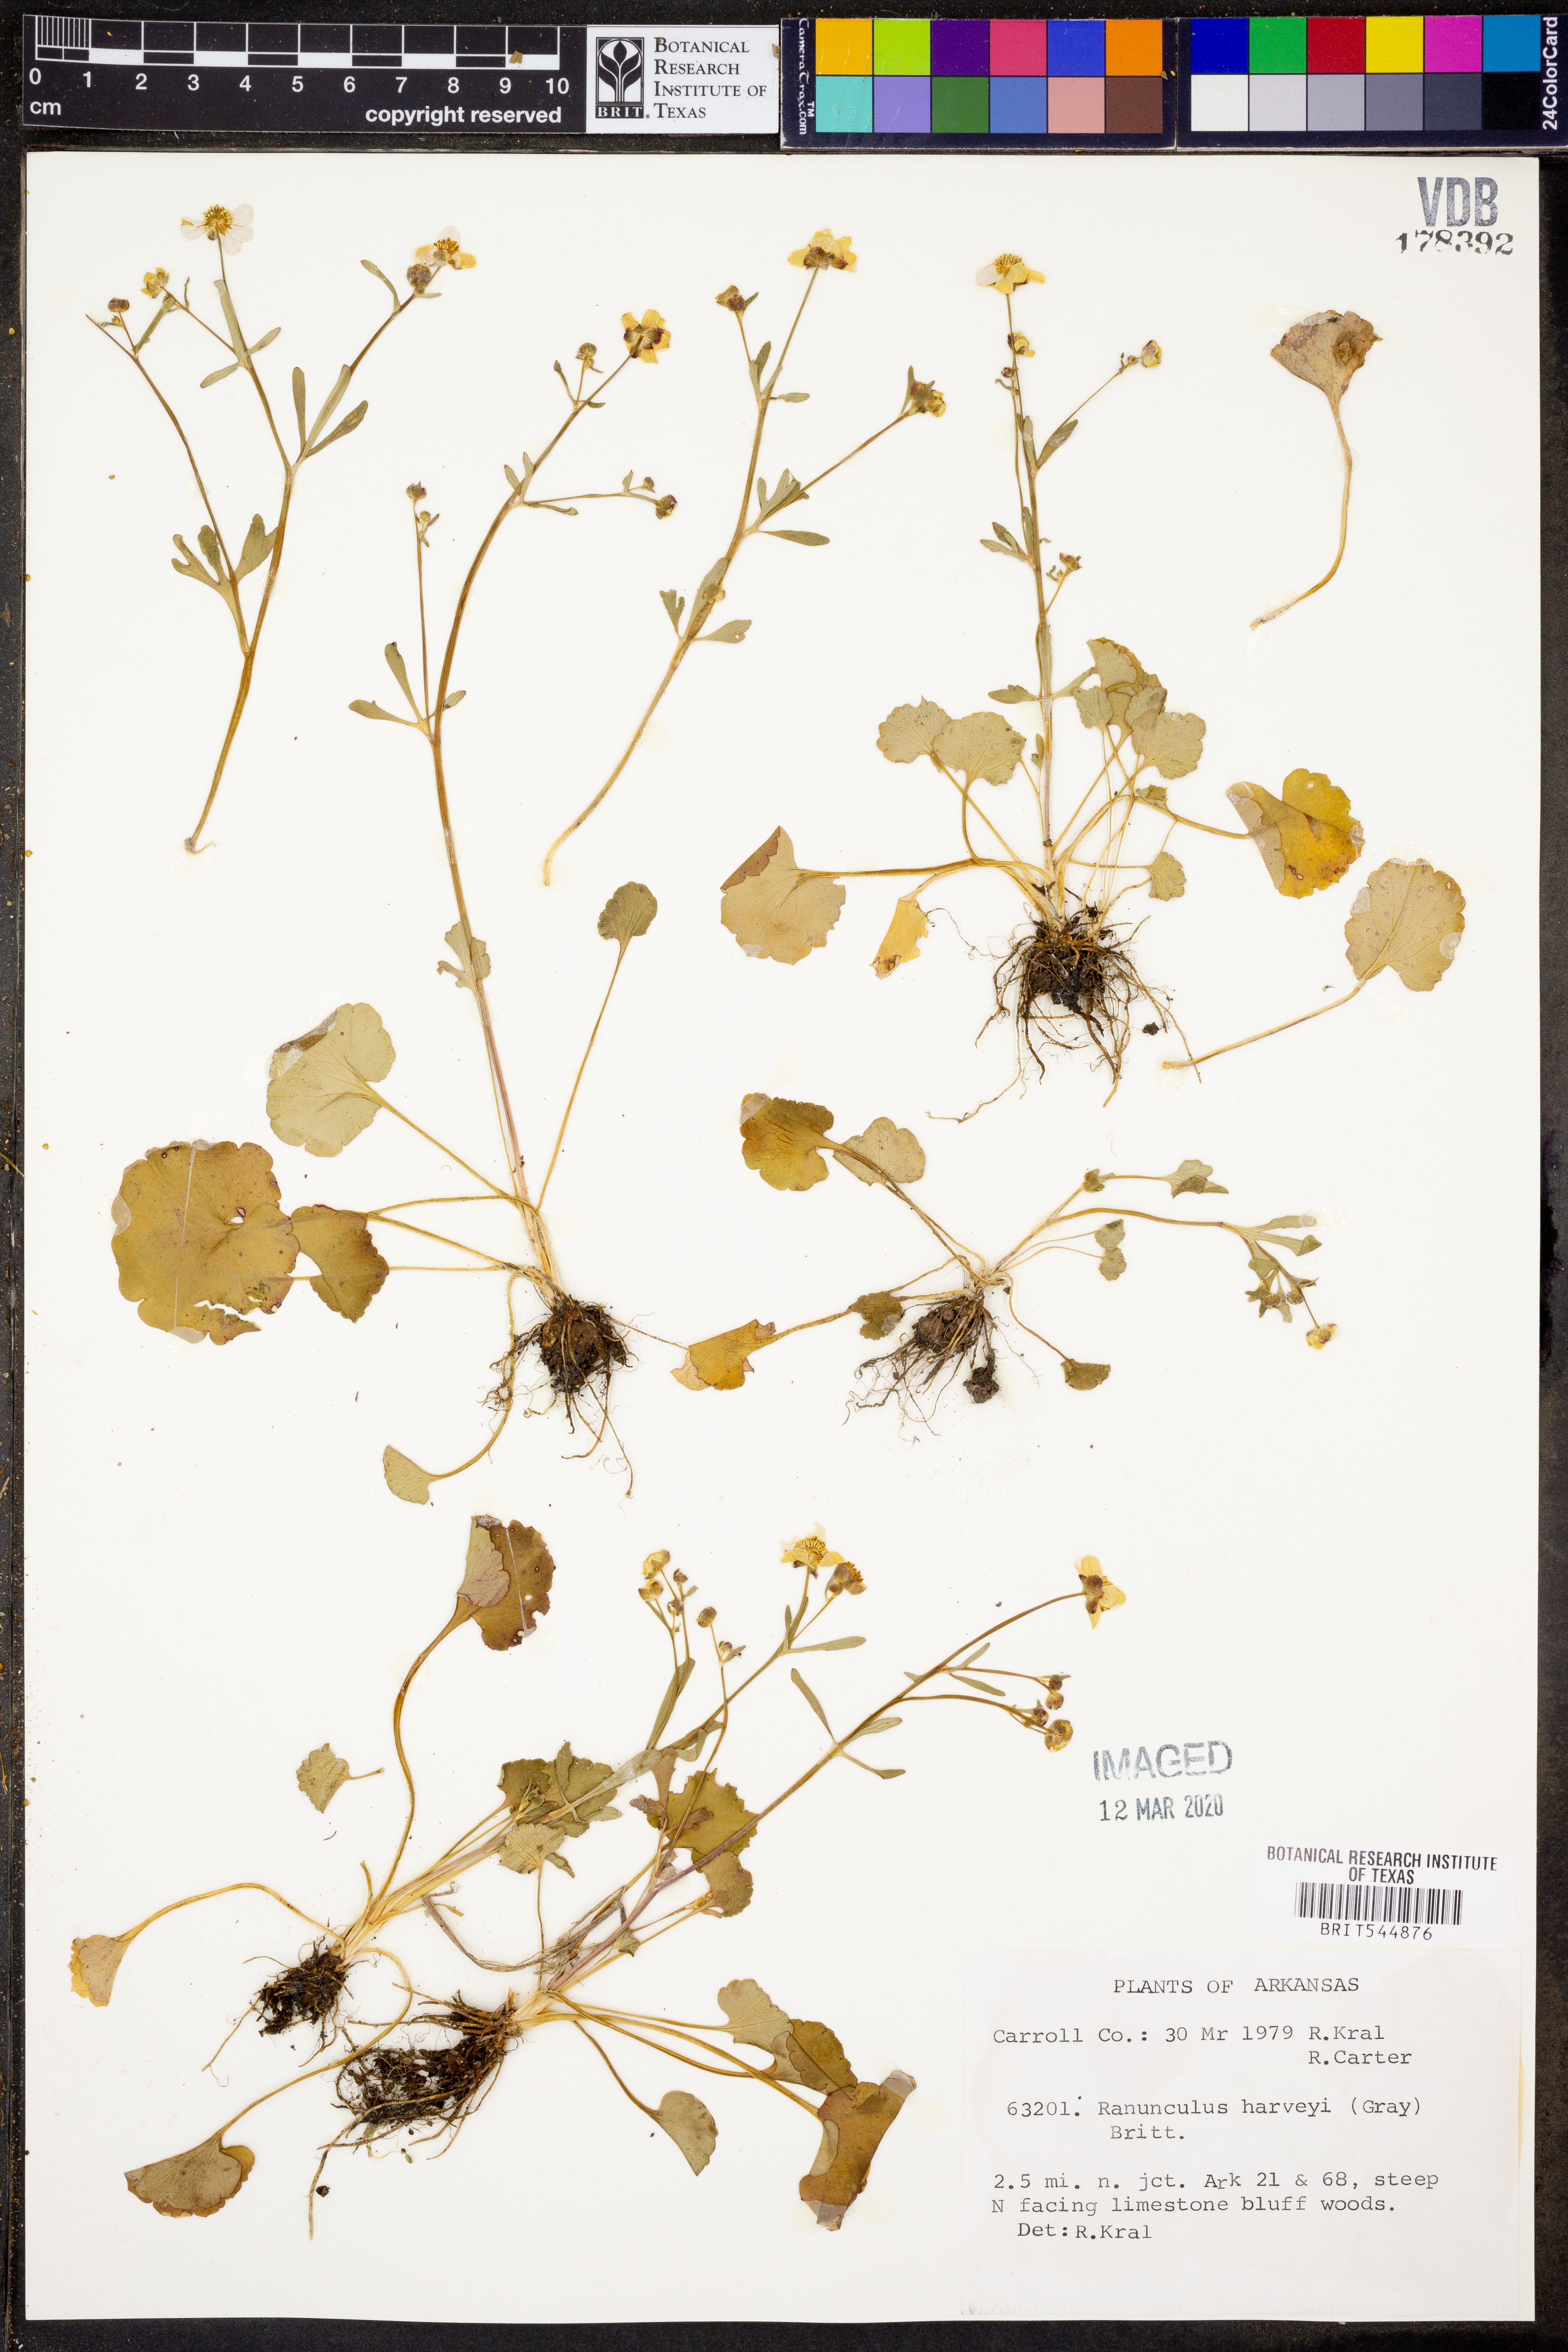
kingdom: Plantae
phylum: Tracheophyta
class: Magnoliopsida
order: Ranunculales
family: Ranunculaceae
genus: Ranunculus
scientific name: Ranunculus harveyi
